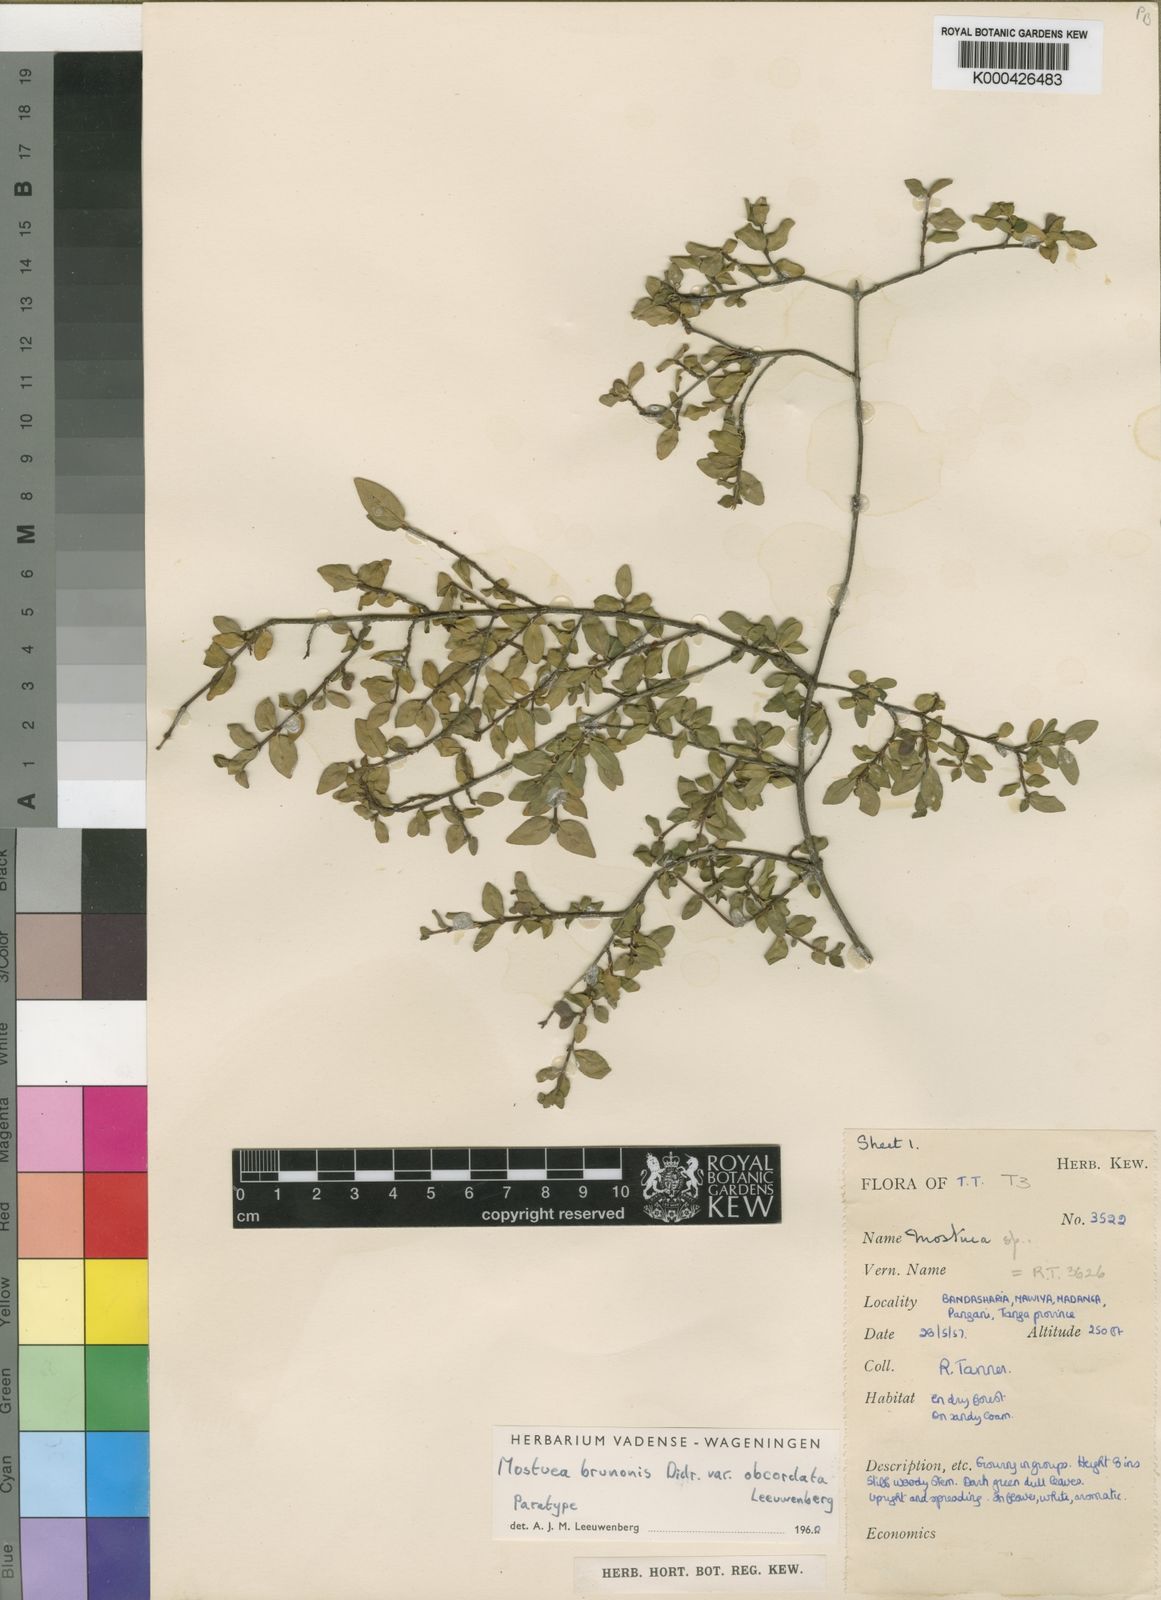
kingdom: Plantae
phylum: Tracheophyta
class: Magnoliopsida
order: Gentianales
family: Gelsemiaceae
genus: Mostuea
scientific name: Mostuea brunonis
